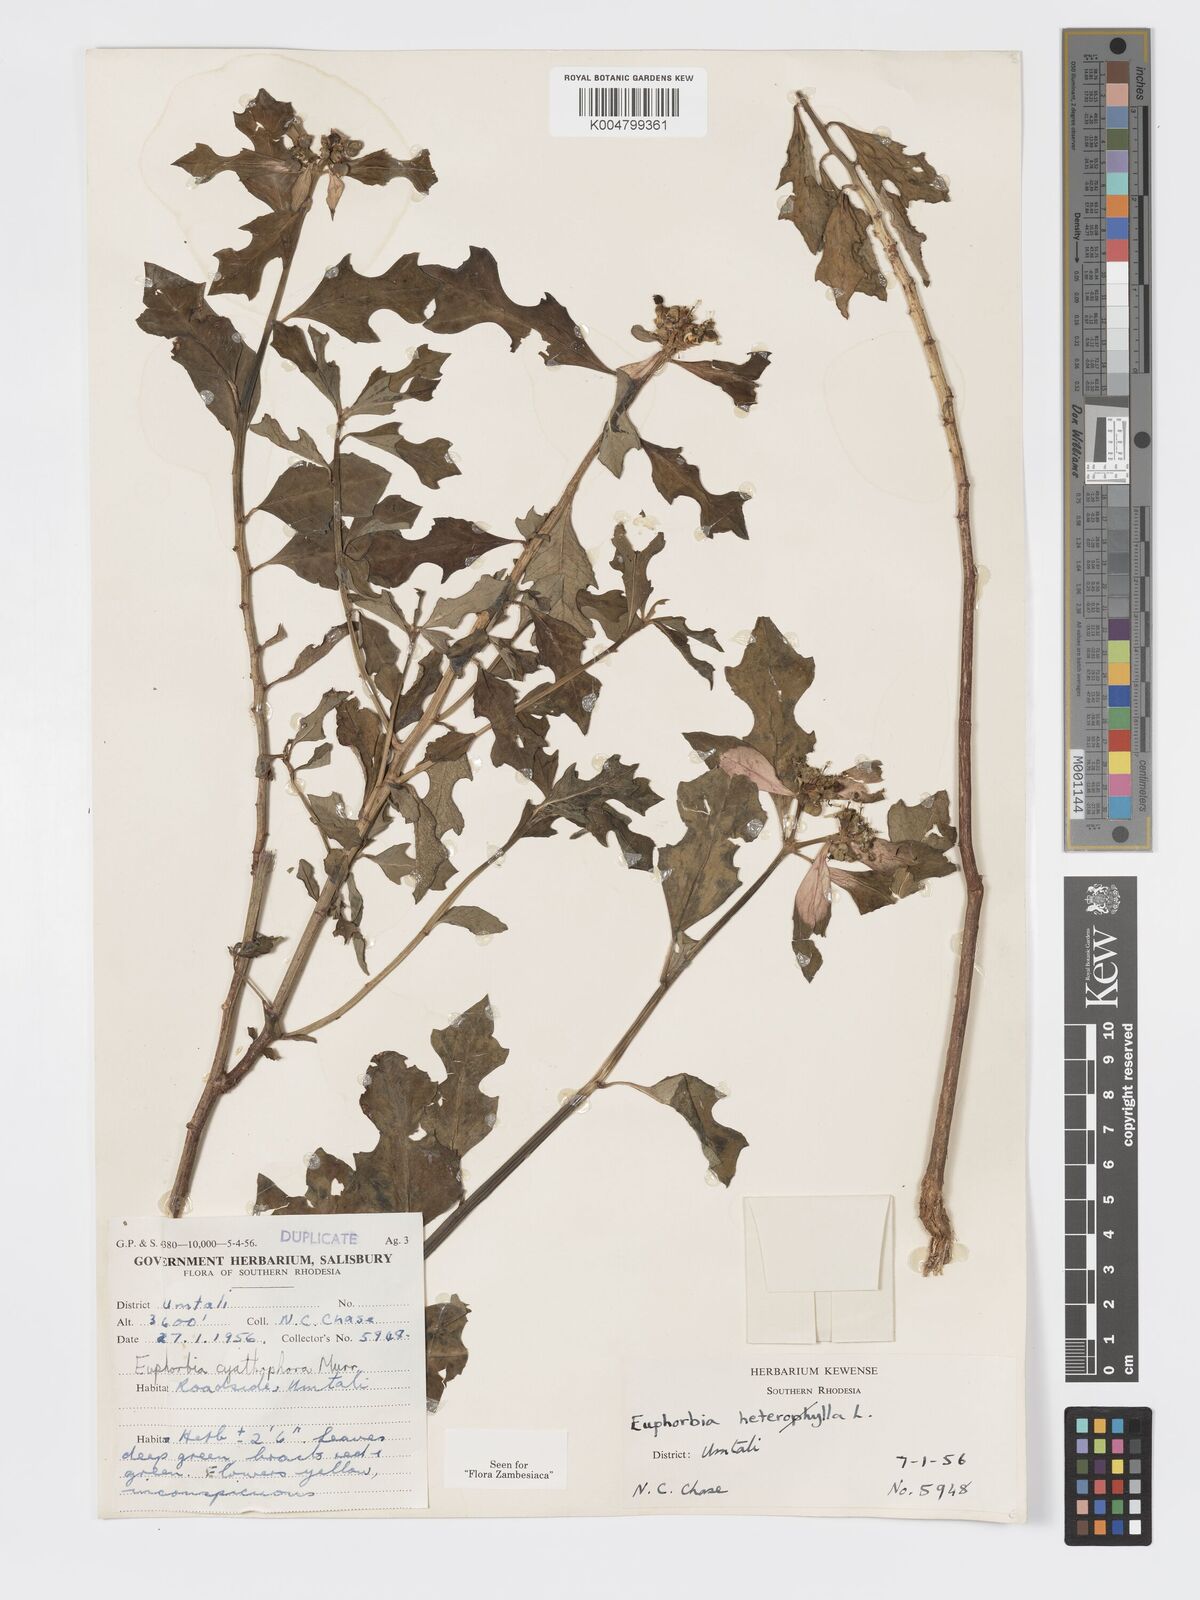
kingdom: Plantae
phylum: Tracheophyta
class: Magnoliopsida
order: Malpighiales
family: Euphorbiaceae
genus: Euphorbia
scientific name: Euphorbia heterophylla
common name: Mexican fireplant
